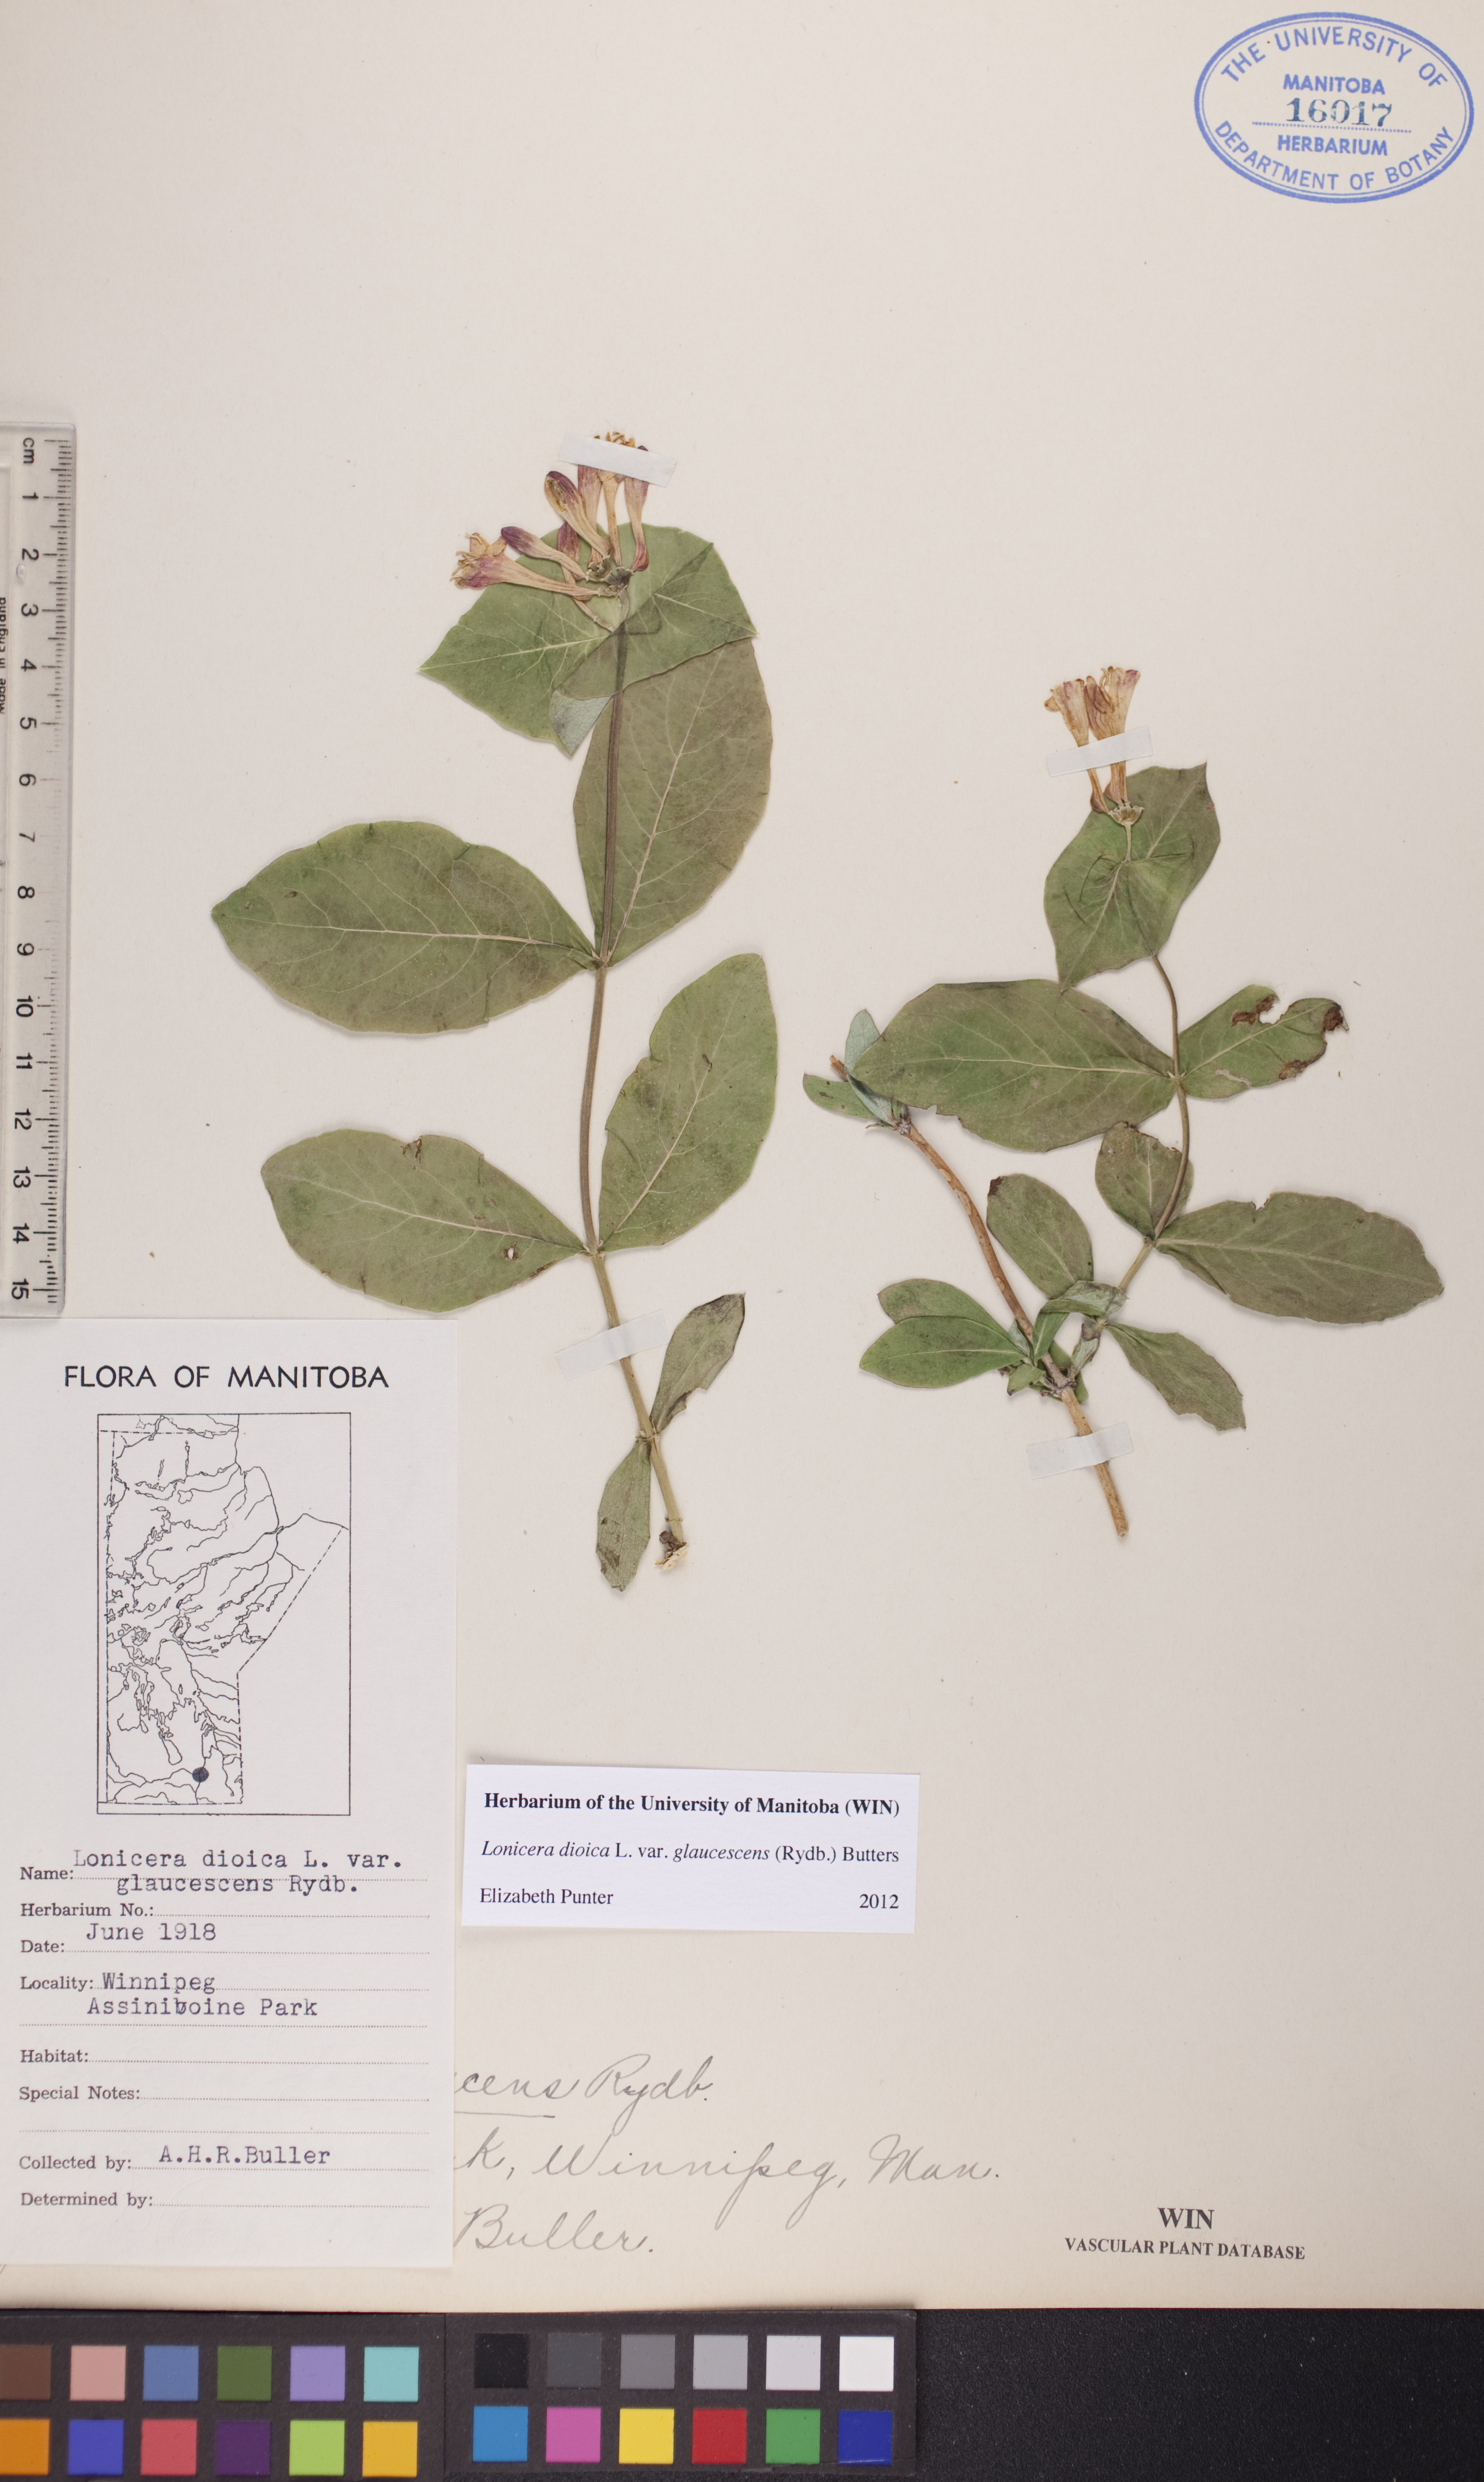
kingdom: Plantae
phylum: Tracheophyta
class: Magnoliopsida
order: Dipsacales
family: Caprifoliaceae
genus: Lonicera
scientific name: Lonicera dioica
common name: Limber honeysuckle
